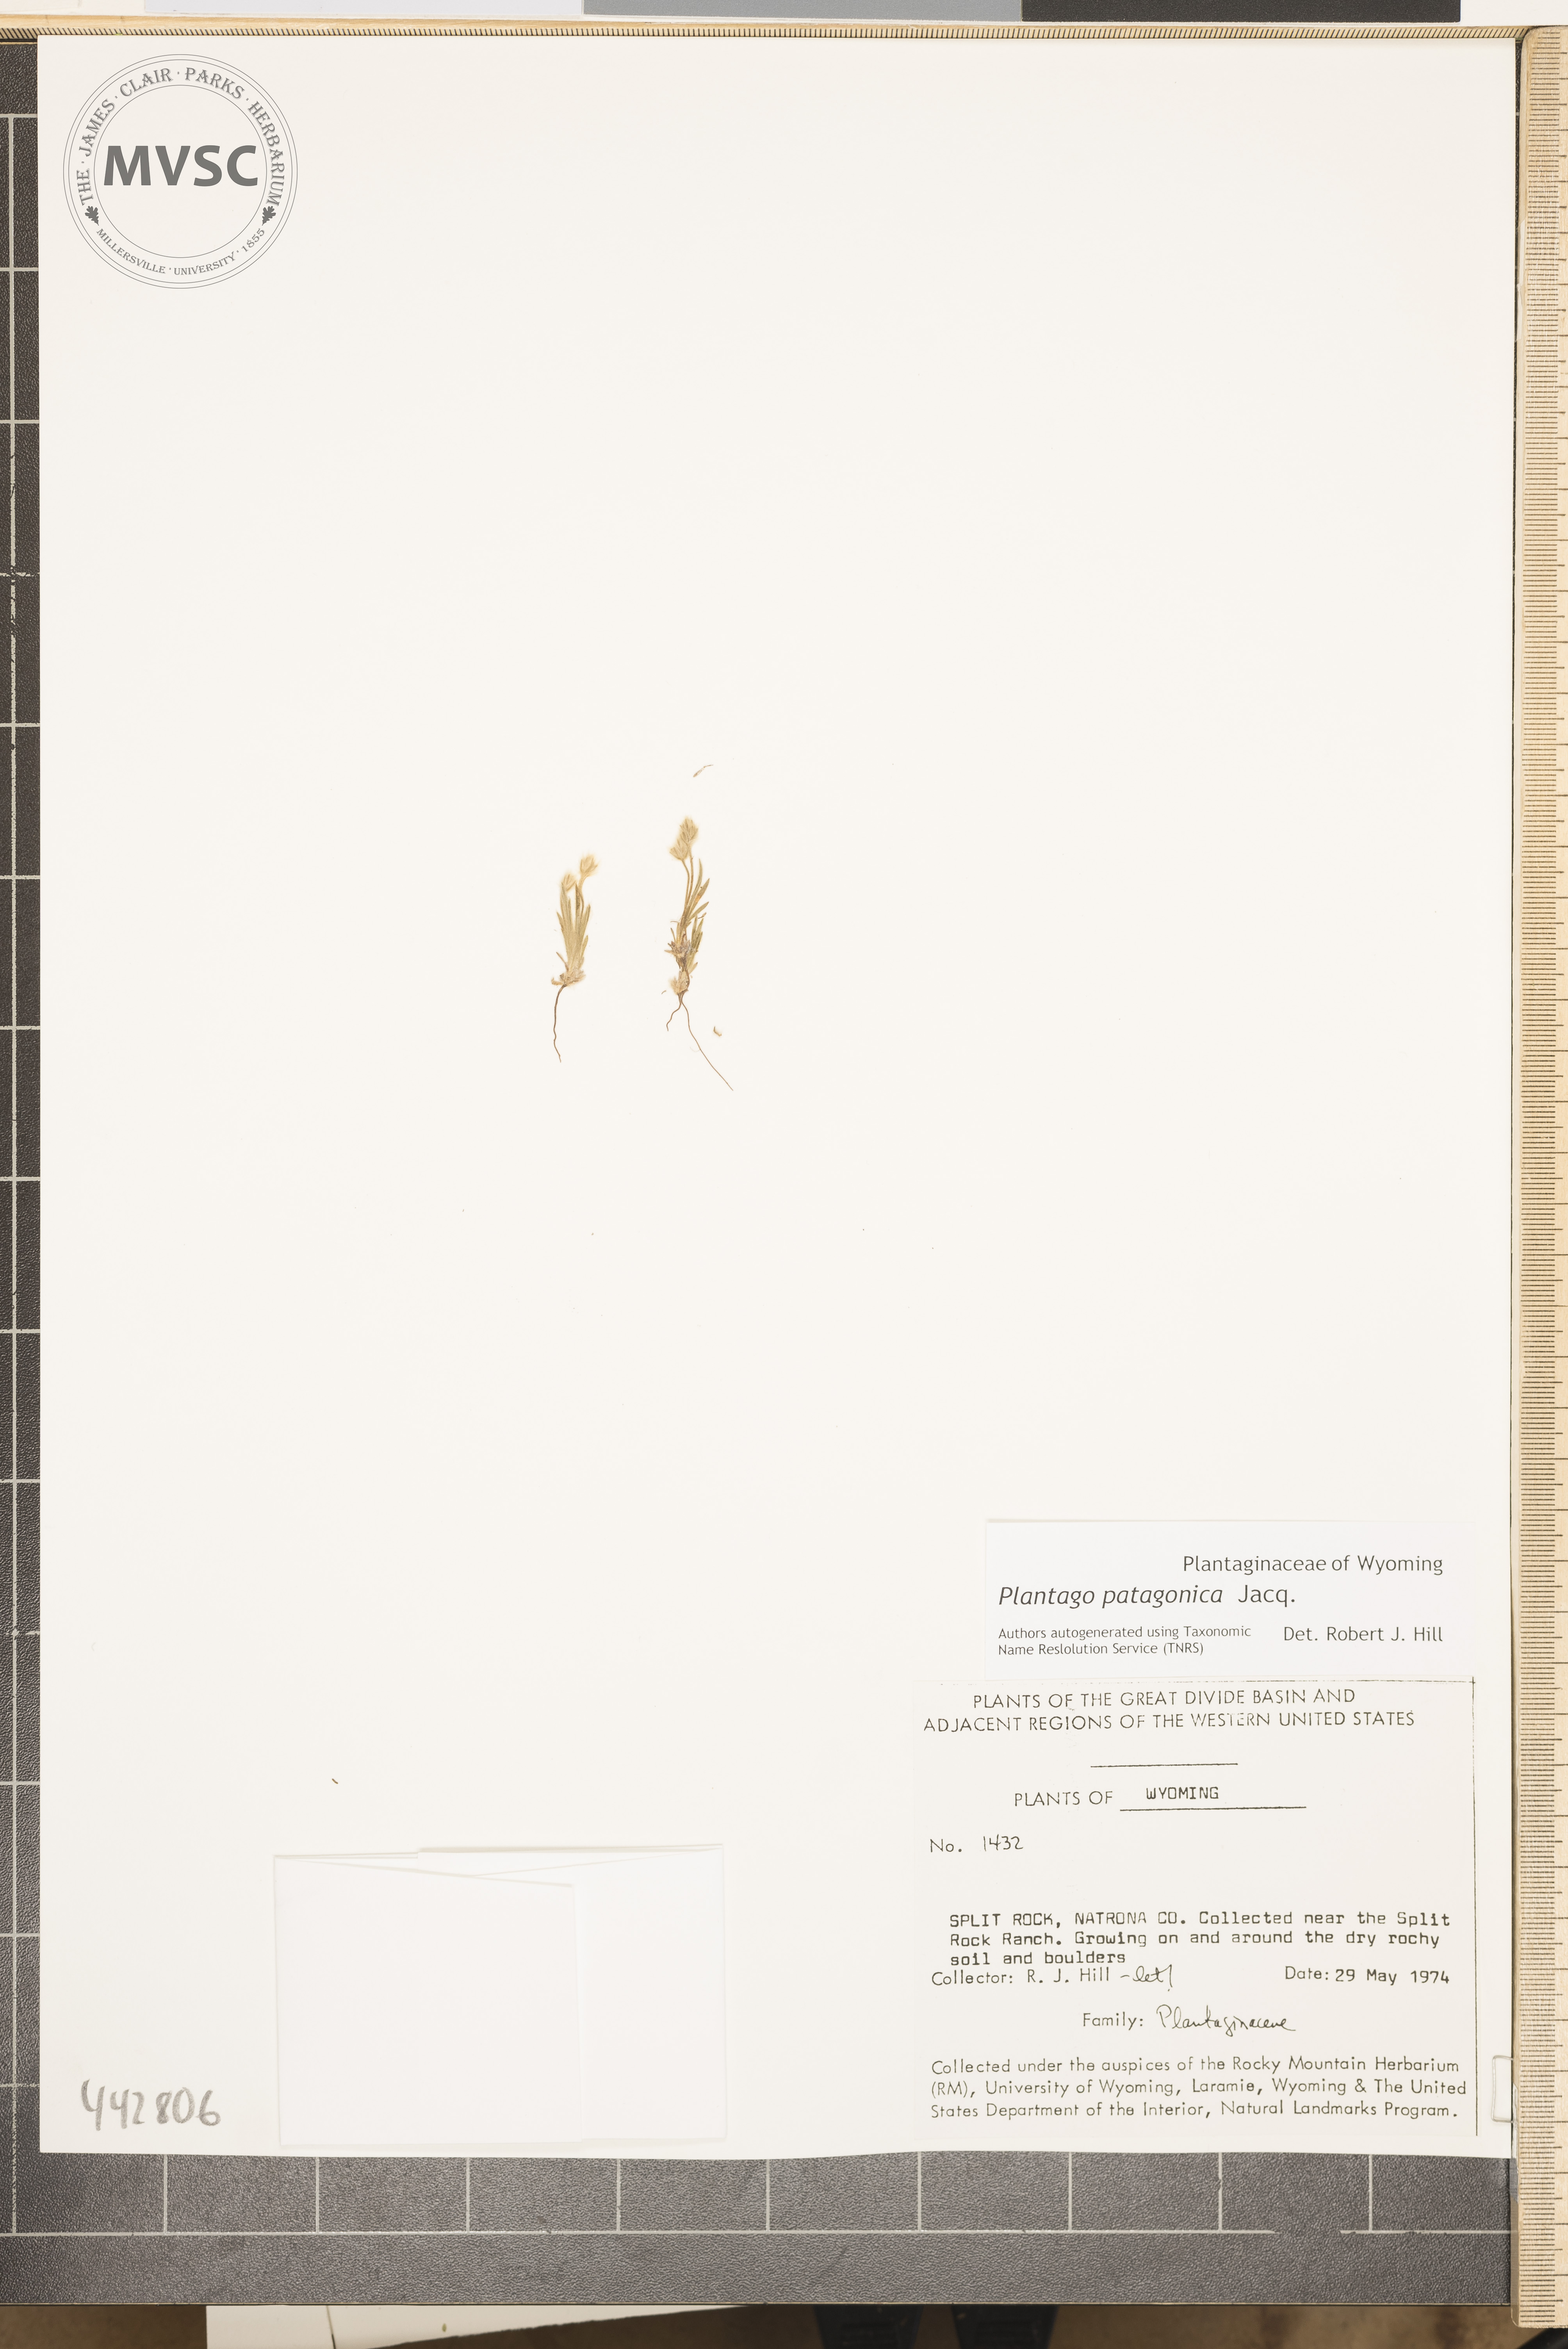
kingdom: Plantae
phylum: Tracheophyta
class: Magnoliopsida
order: Lamiales
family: Plantaginaceae
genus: Plantago
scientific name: Plantago patagonica
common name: Patagonia indian-wheat
